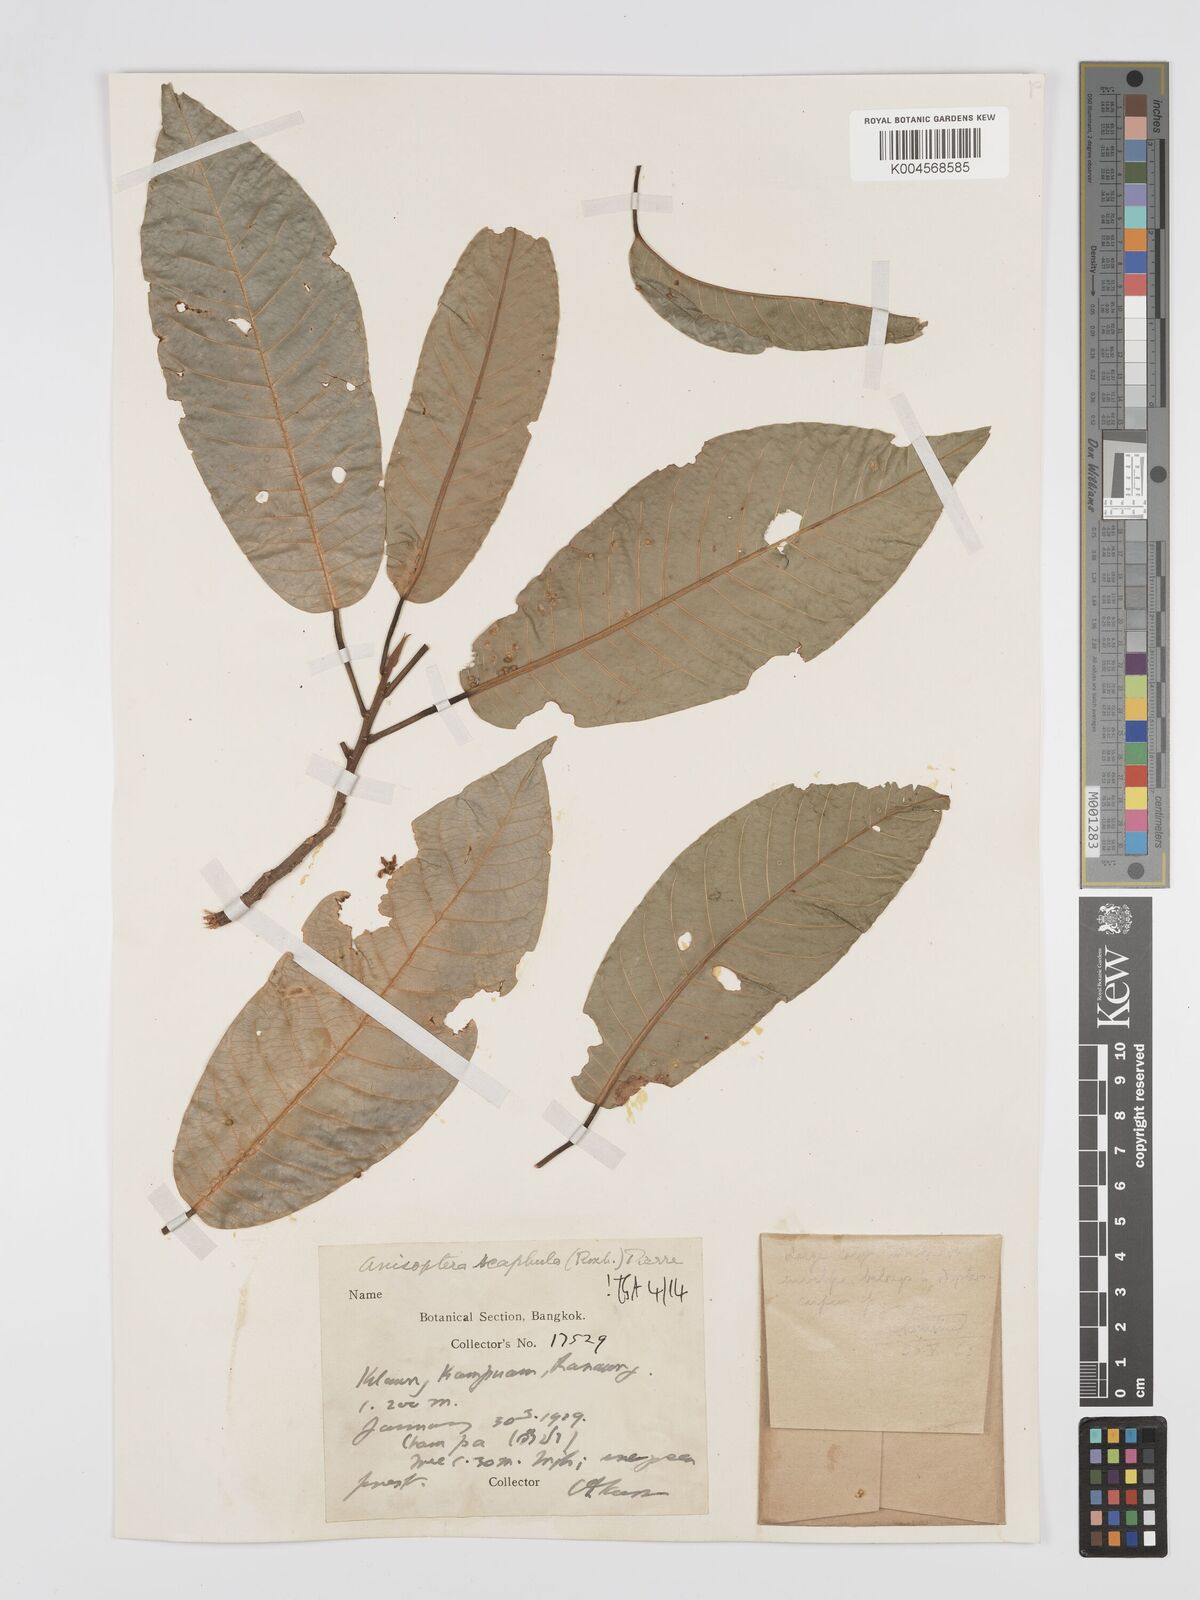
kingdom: Plantae
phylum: Tracheophyta
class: Magnoliopsida
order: Malvales
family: Dipterocarpaceae
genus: Anisoptera
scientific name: Anisoptera scaphula
